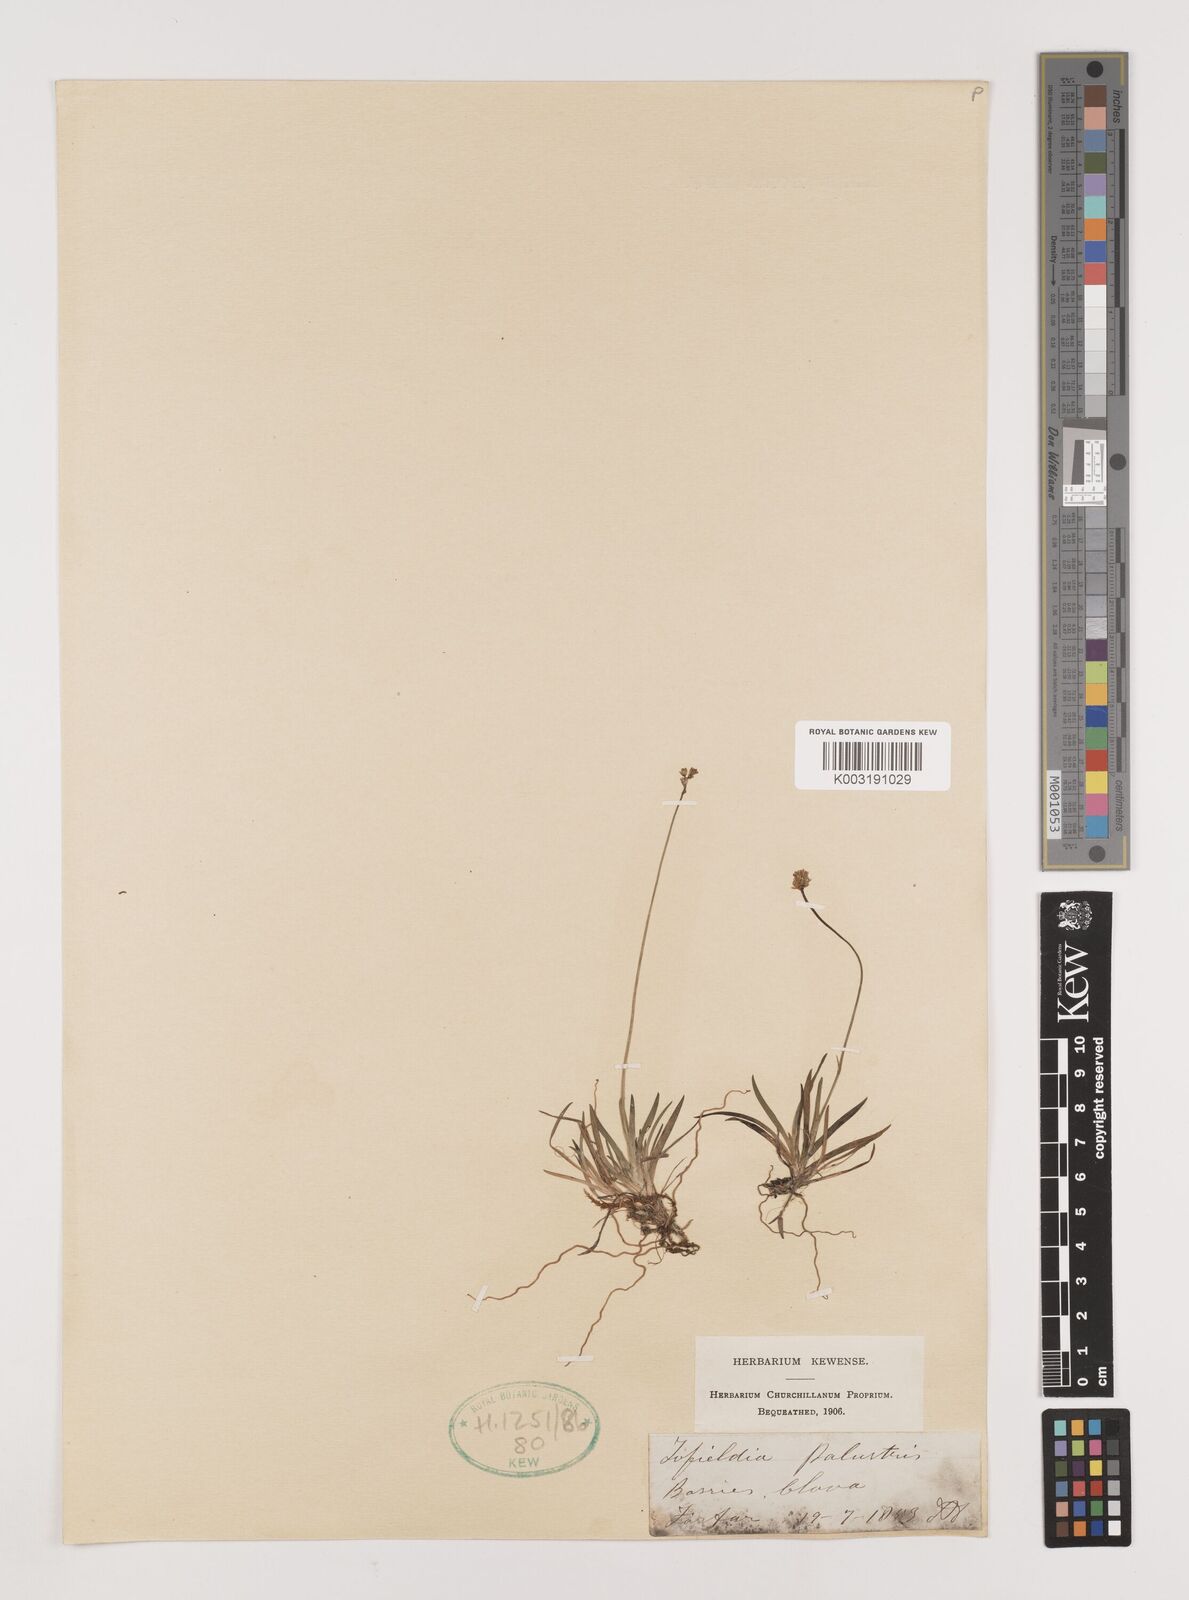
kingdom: Plantae
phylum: Tracheophyta
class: Liliopsida
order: Alismatales
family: Tofieldiaceae
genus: Tofieldia
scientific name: Tofieldia pusilla
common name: Scottish false asphodel
